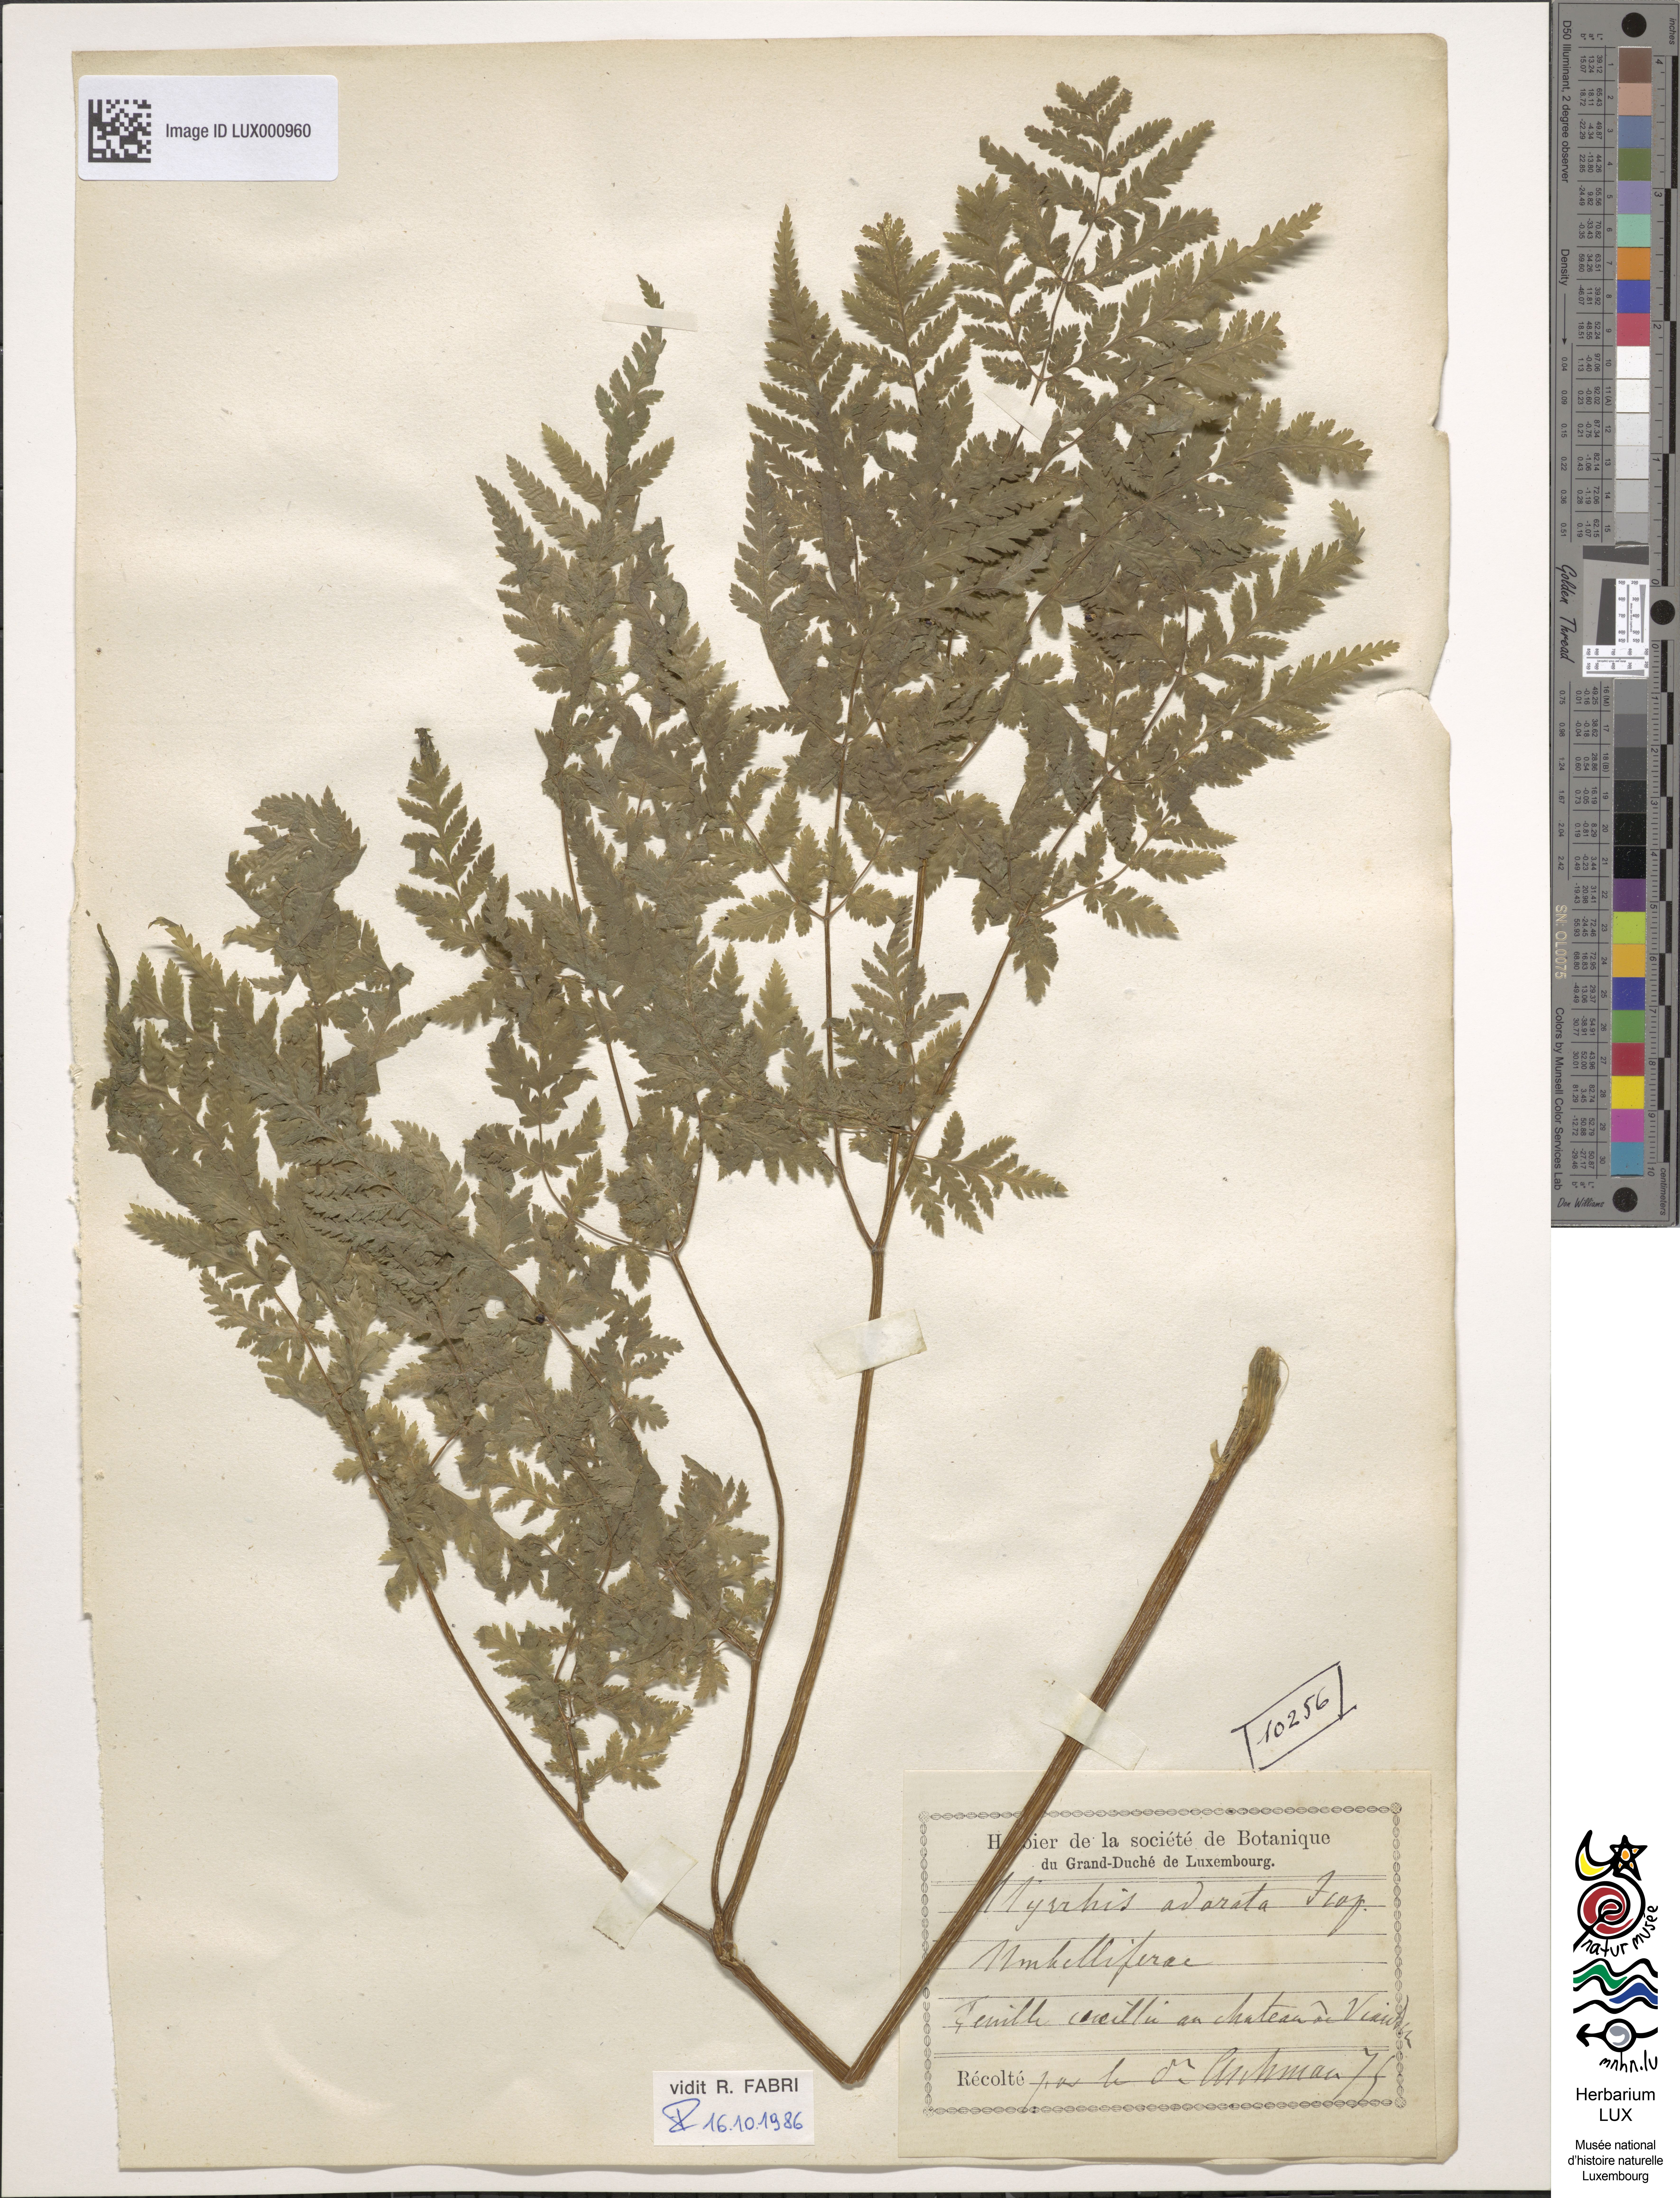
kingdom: Plantae
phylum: Tracheophyta
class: Magnoliopsida
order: Apiales
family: Apiaceae
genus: Myrrhis
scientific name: Myrrhis odorata
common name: Sweet cicely
